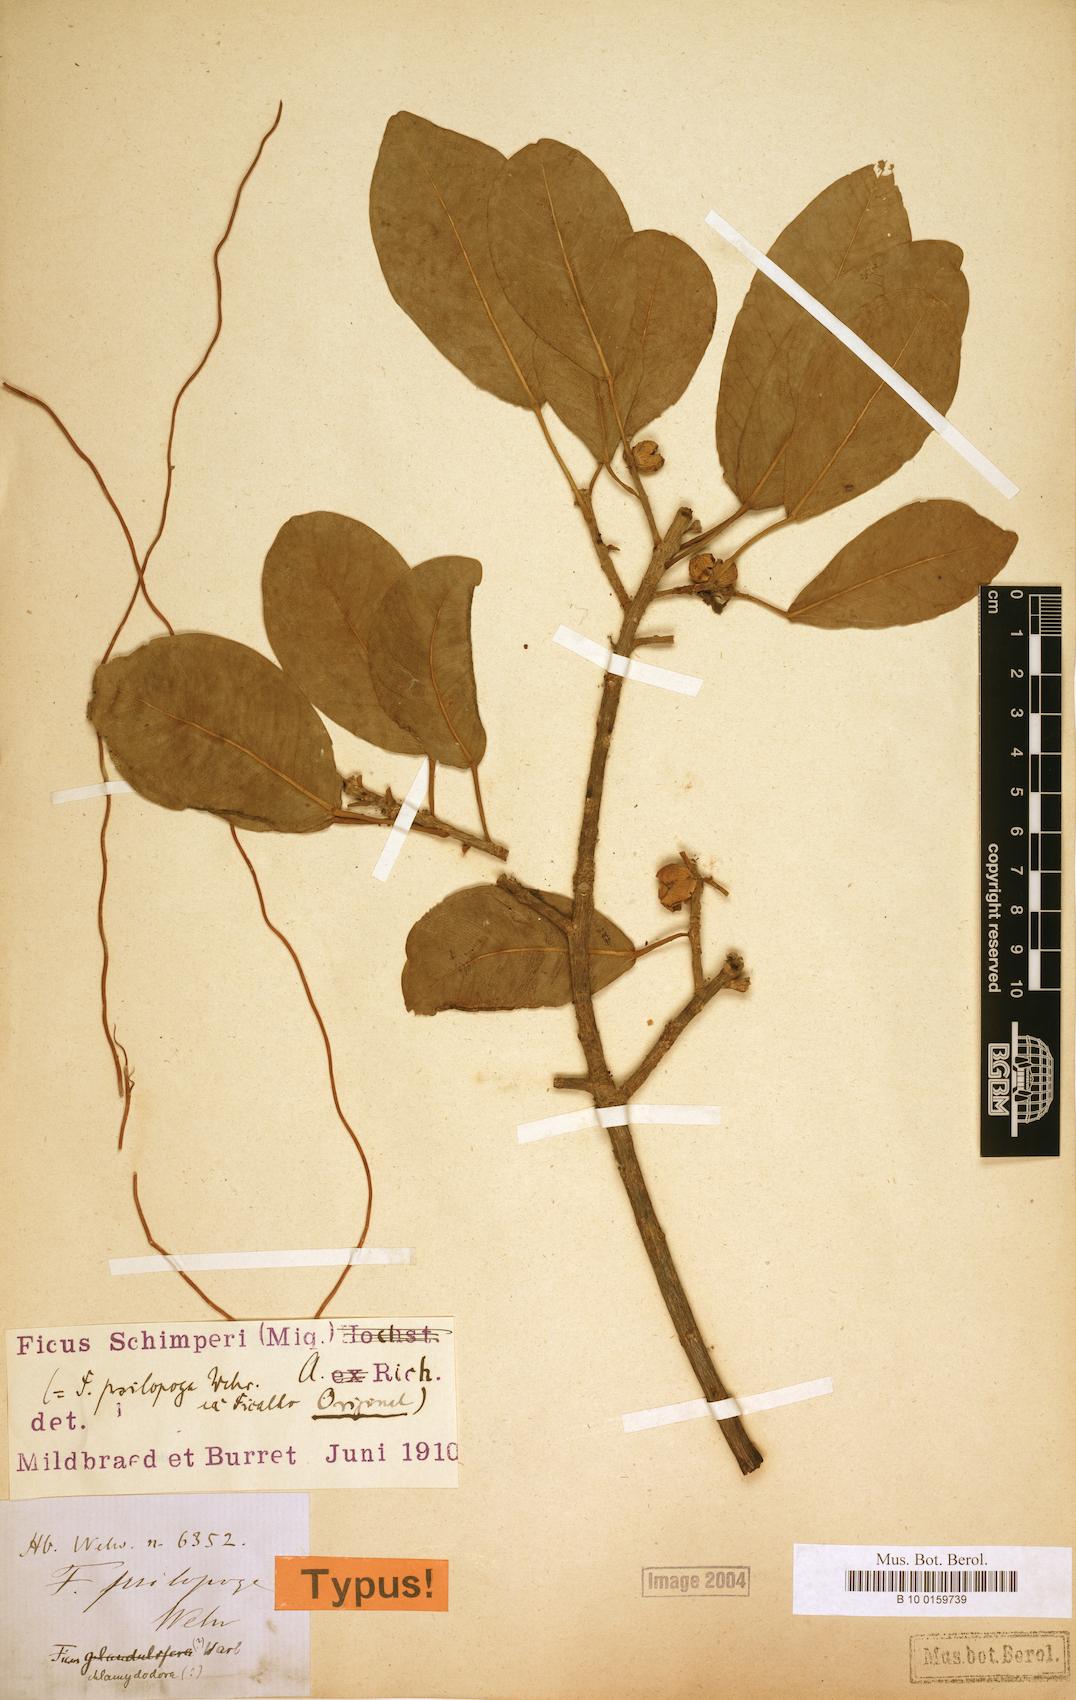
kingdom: Plantae
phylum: Tracheophyta
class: Magnoliopsida
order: Rosales
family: Moraceae
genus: Ficus
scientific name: Ficus thonningii
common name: Fig
